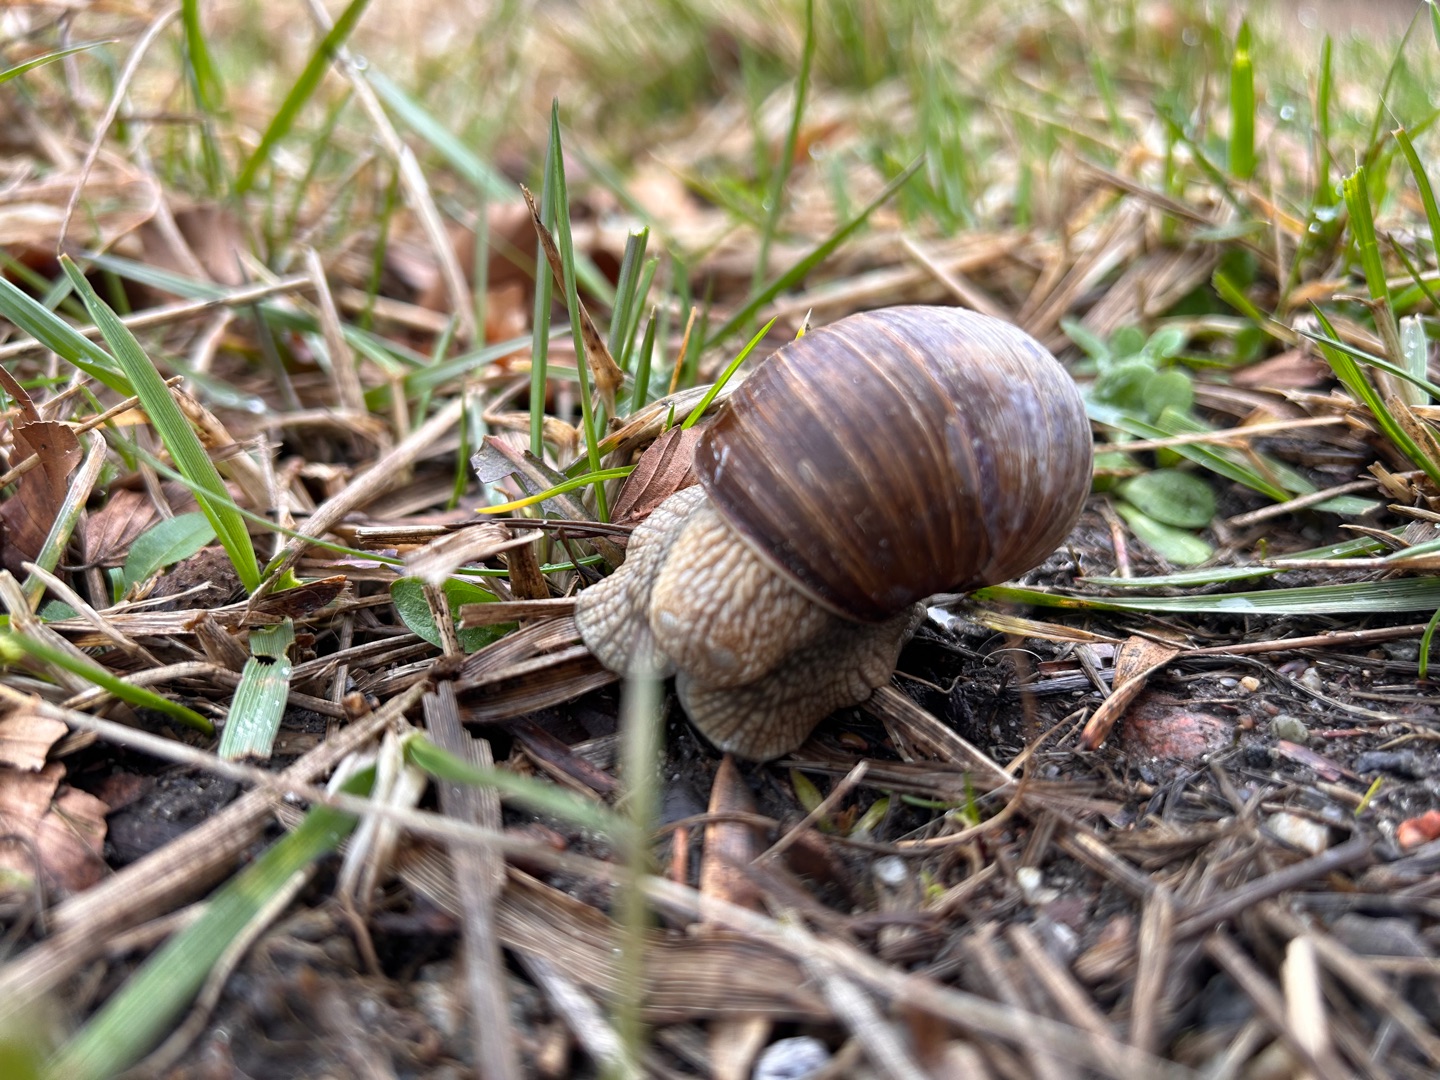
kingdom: Animalia
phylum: Mollusca
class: Gastropoda
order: Stylommatophora
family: Helicidae
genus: Helix
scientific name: Helix pomatia
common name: Vinbjergsnegl
